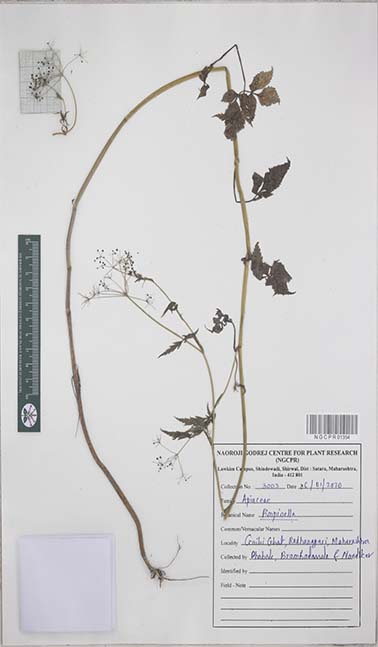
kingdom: Plantae
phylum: Tracheophyta
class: Magnoliopsida
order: Apiales
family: Apiaceae
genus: Pimpinella
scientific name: Pimpinella
